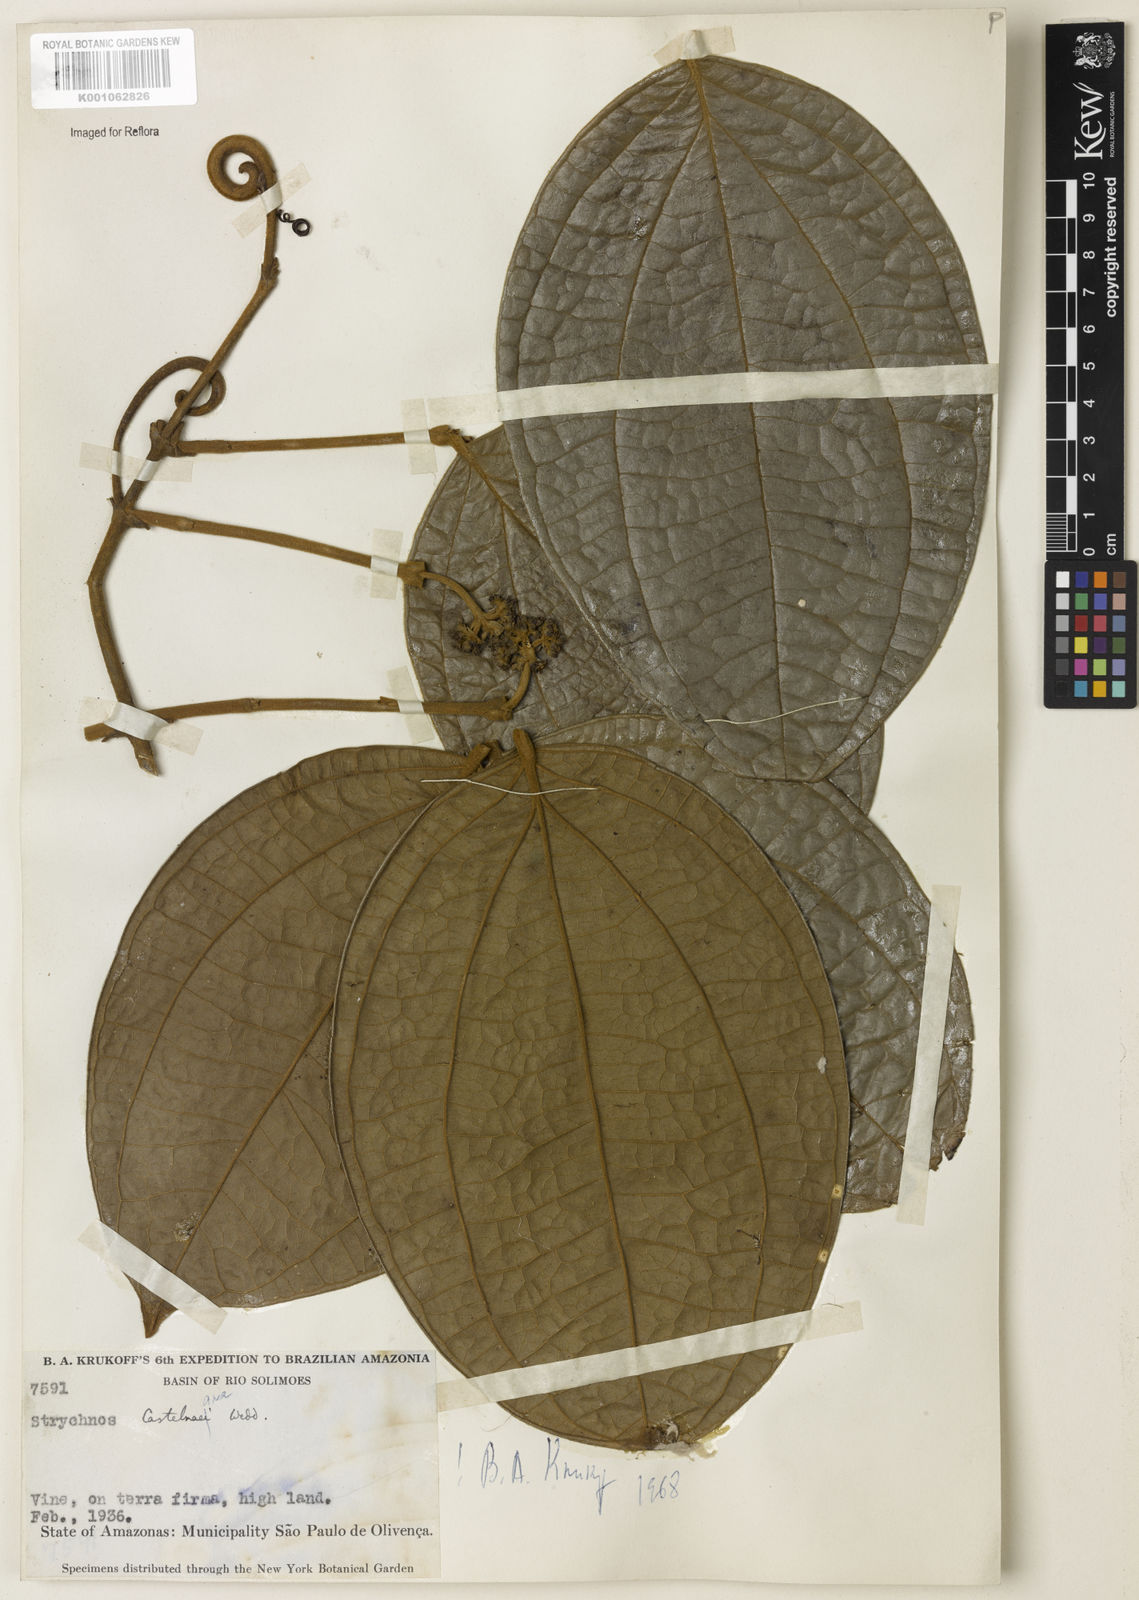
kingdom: Plantae
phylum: Tracheophyta
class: Magnoliopsida
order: Gentianales
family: Loganiaceae
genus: Strychnos
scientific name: Strychnos
